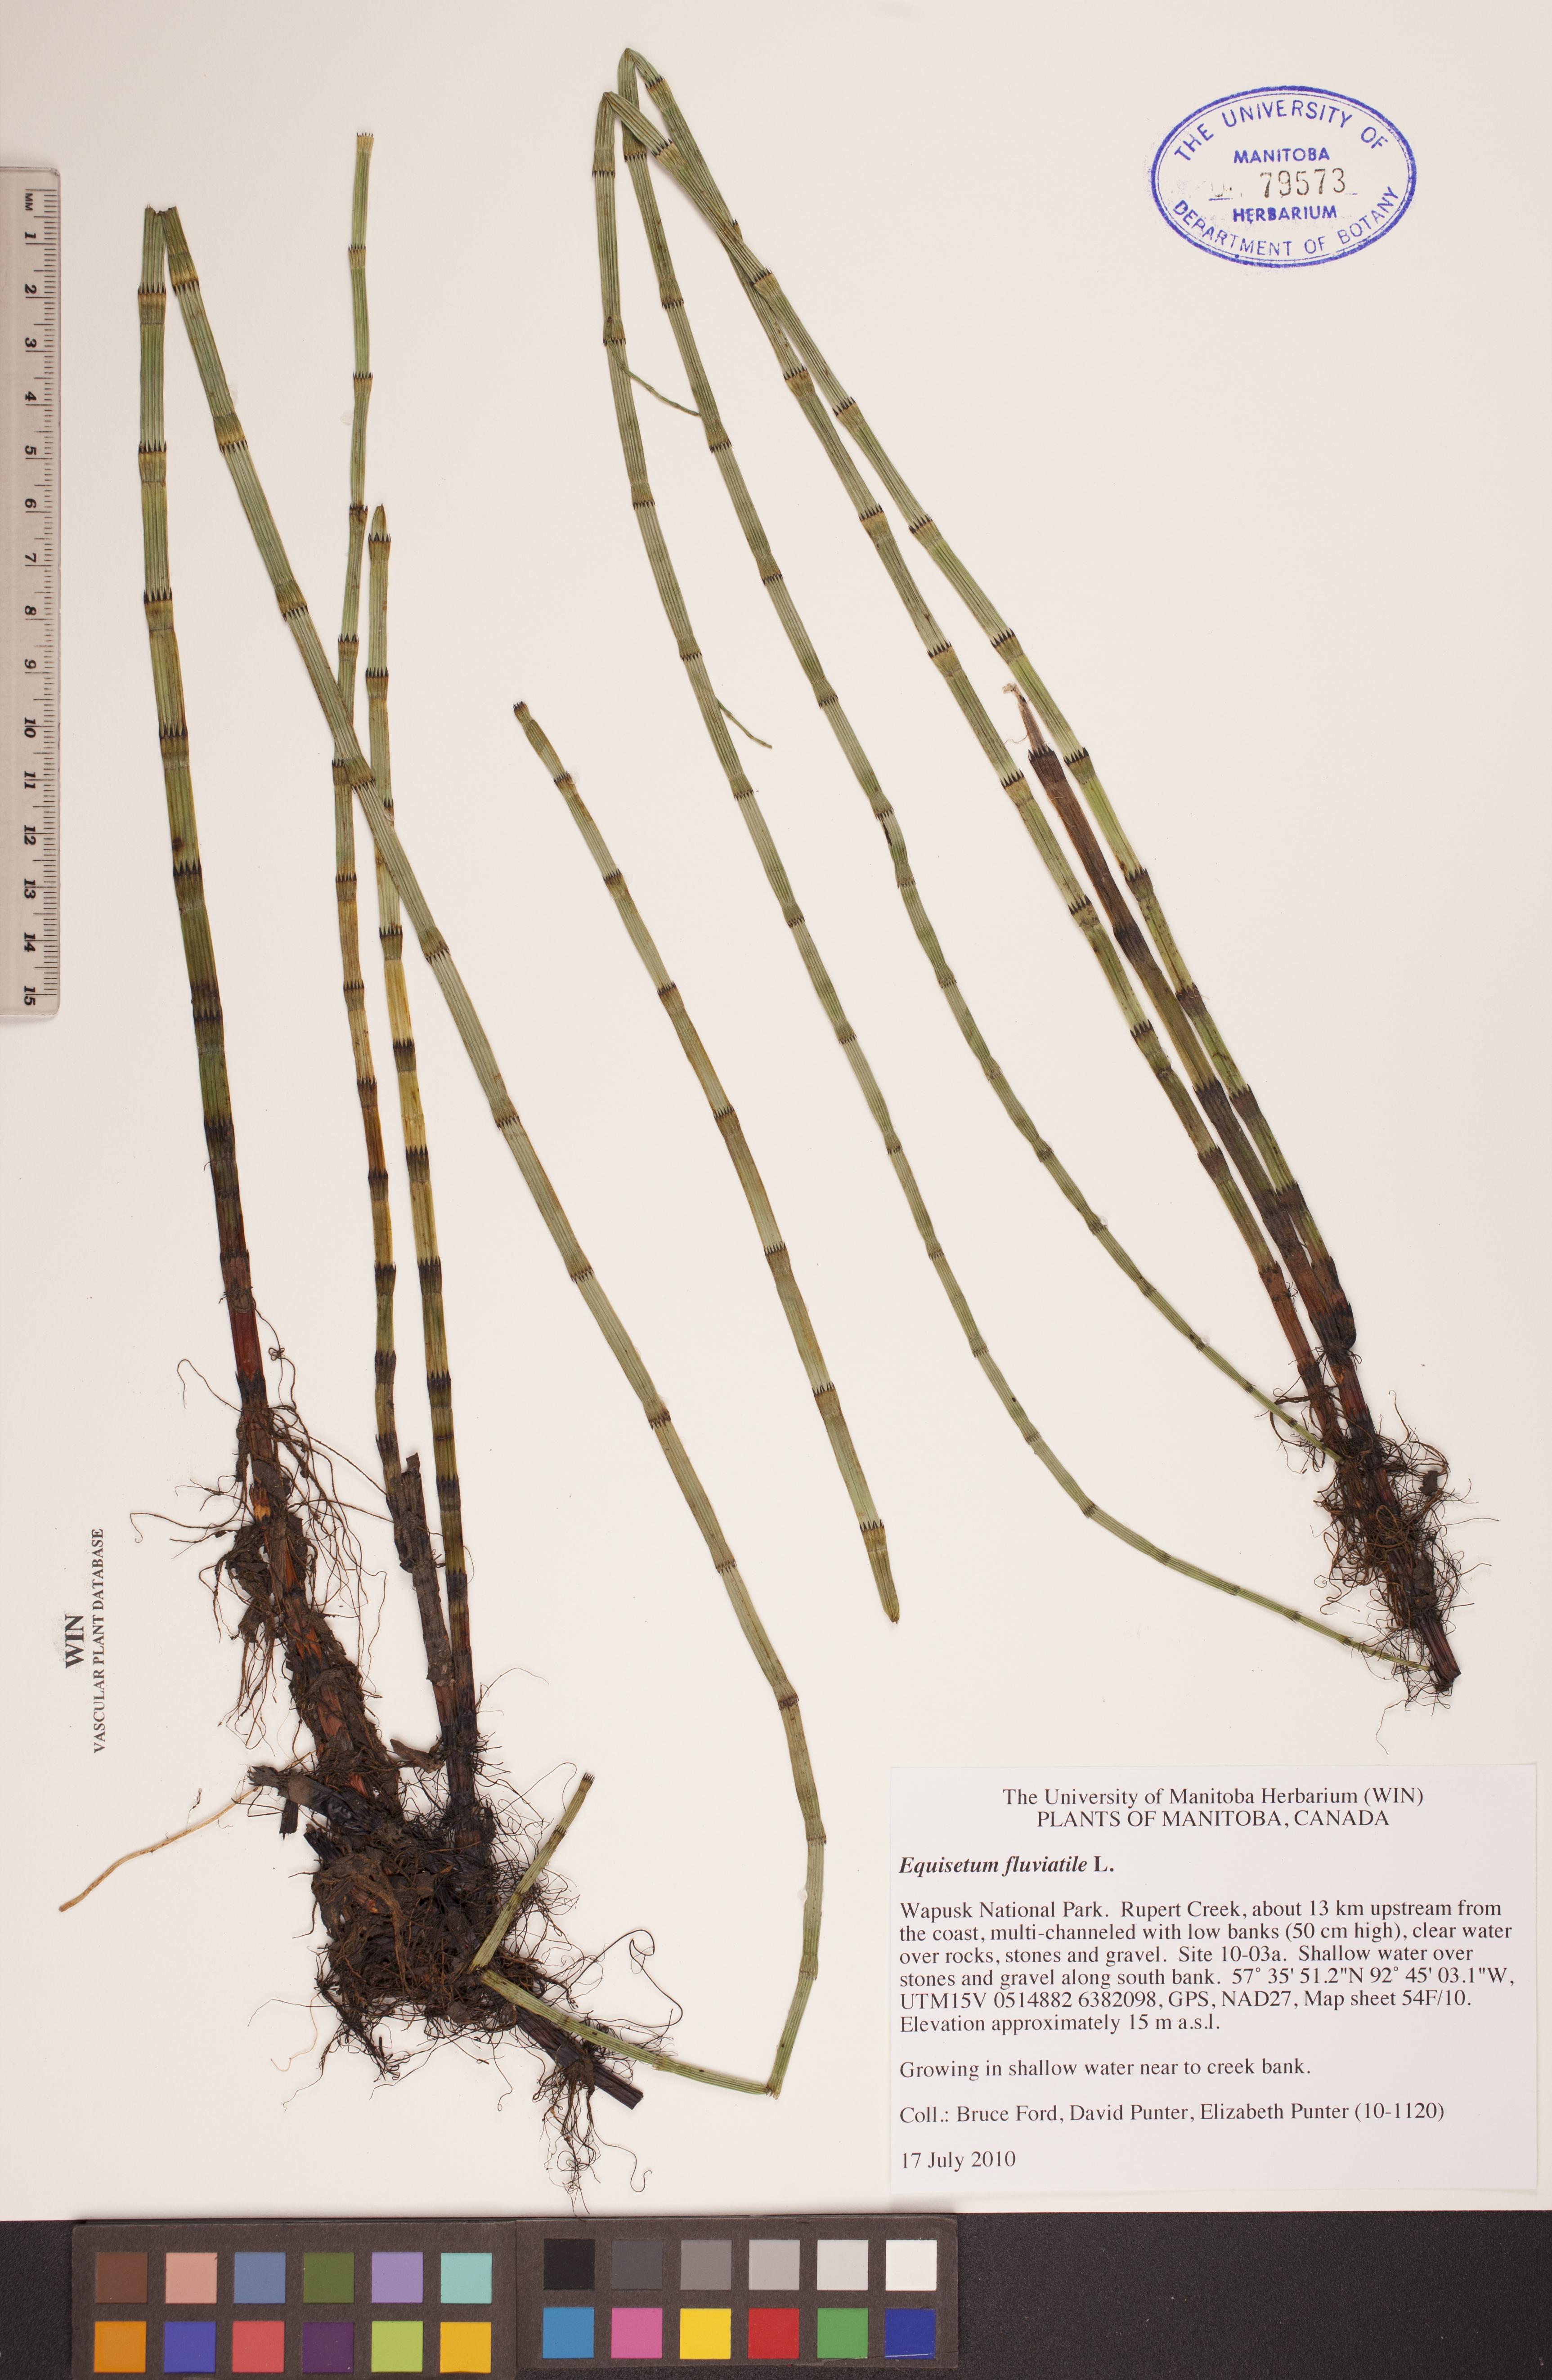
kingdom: Plantae
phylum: Tracheophyta
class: Polypodiopsida
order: Equisetales
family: Equisetaceae
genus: Equisetum
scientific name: Equisetum fluviatile
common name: Water horsetail
